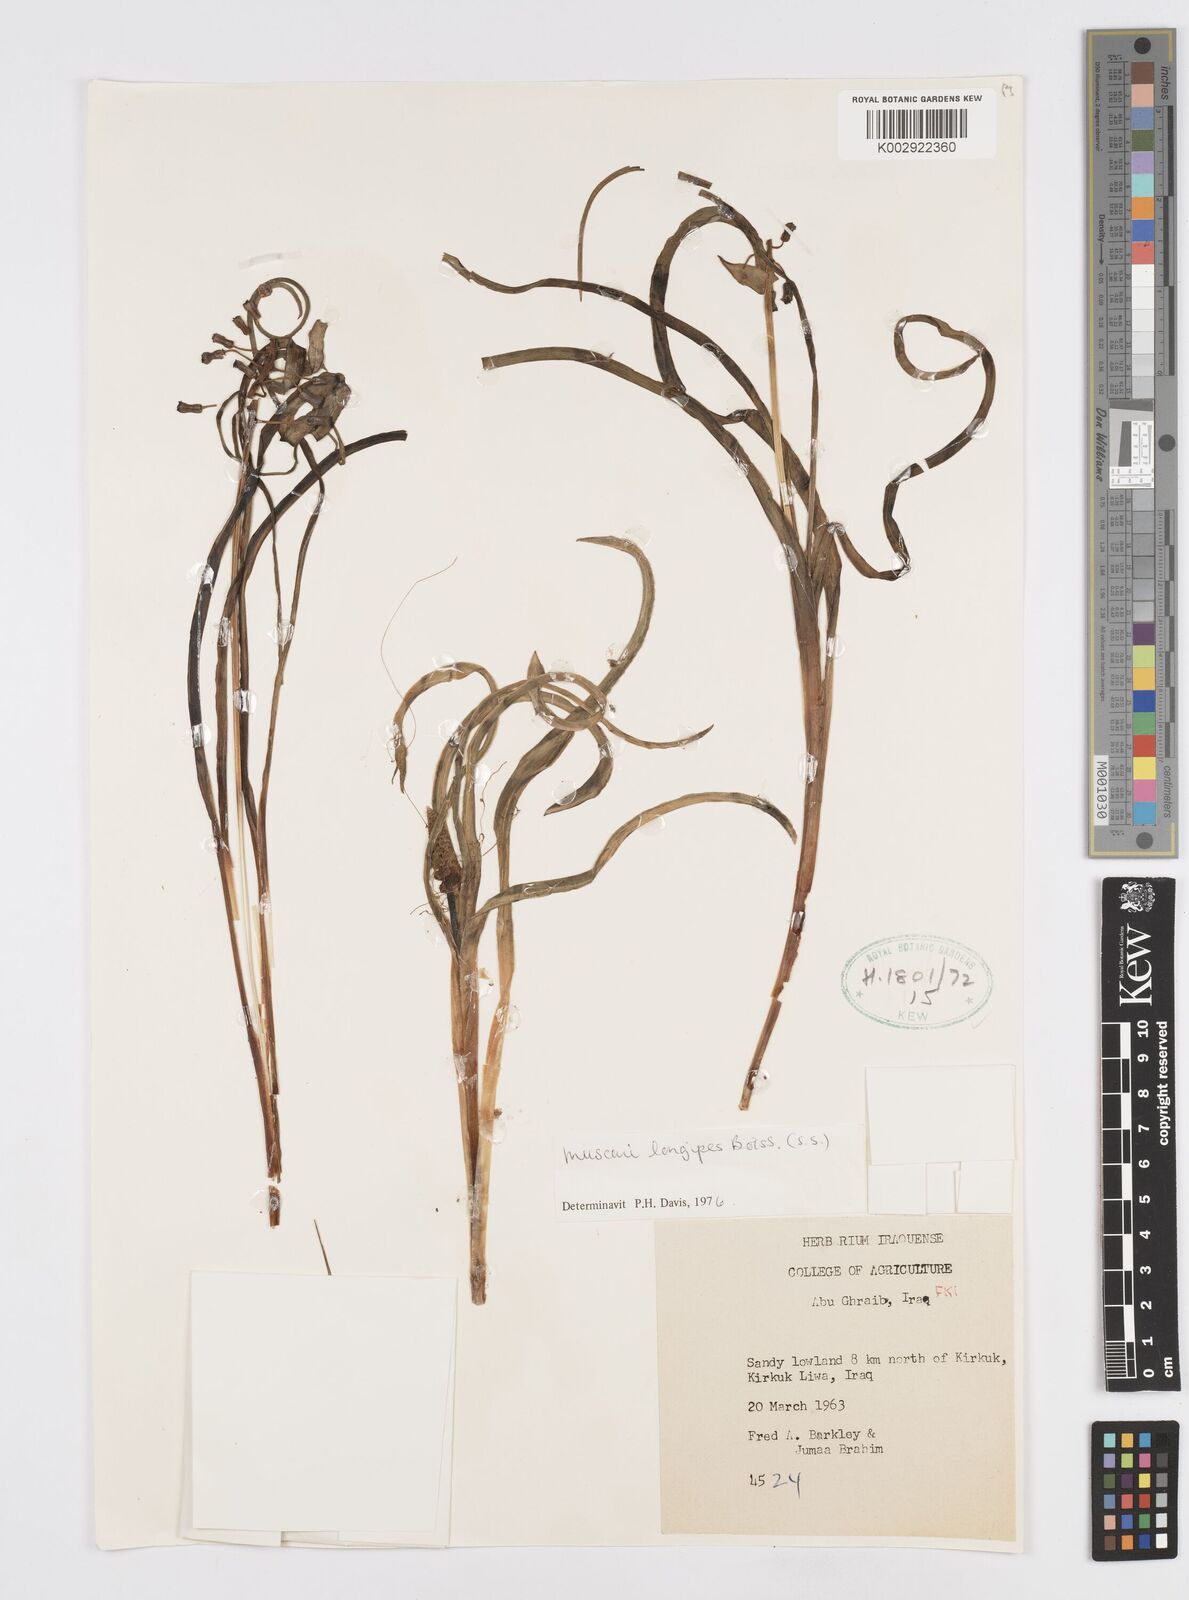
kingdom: Plantae
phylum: Tracheophyta
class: Liliopsida
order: Asparagales
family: Asparagaceae
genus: Muscari
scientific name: Muscari longipes
